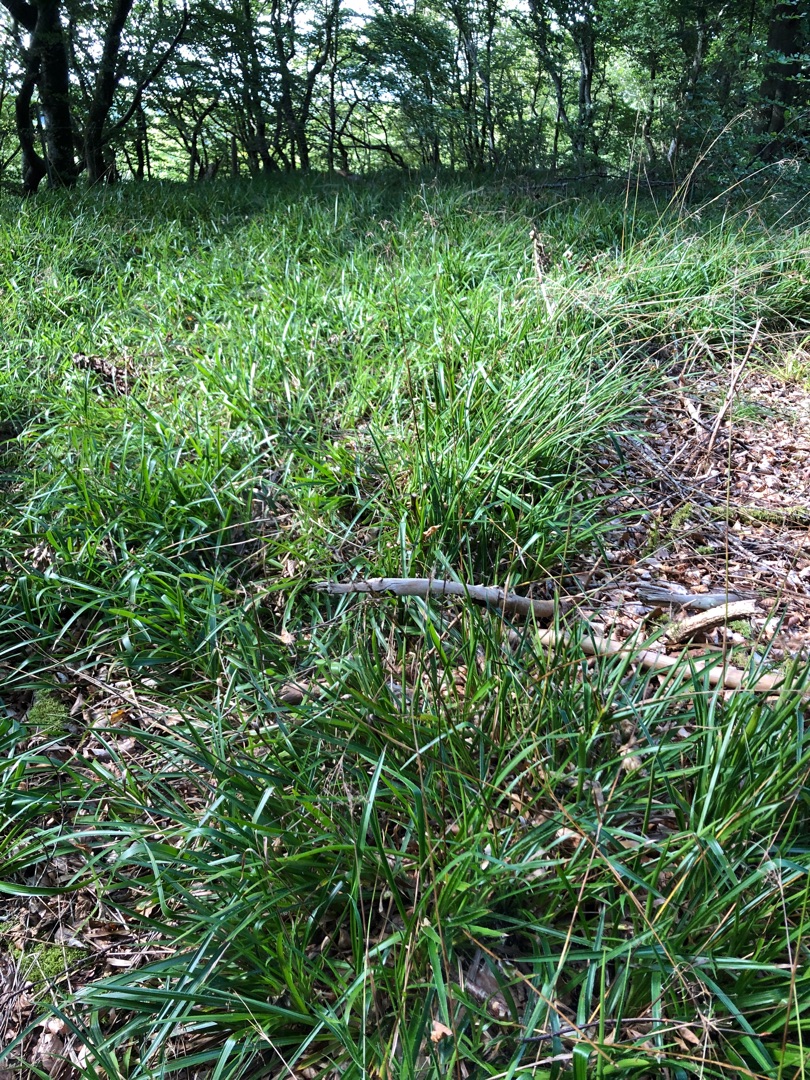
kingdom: Plantae
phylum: Tracheophyta
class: Liliopsida
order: Poales
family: Juncaceae
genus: Luzula
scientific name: Luzula sylvatica
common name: Stor frytle
